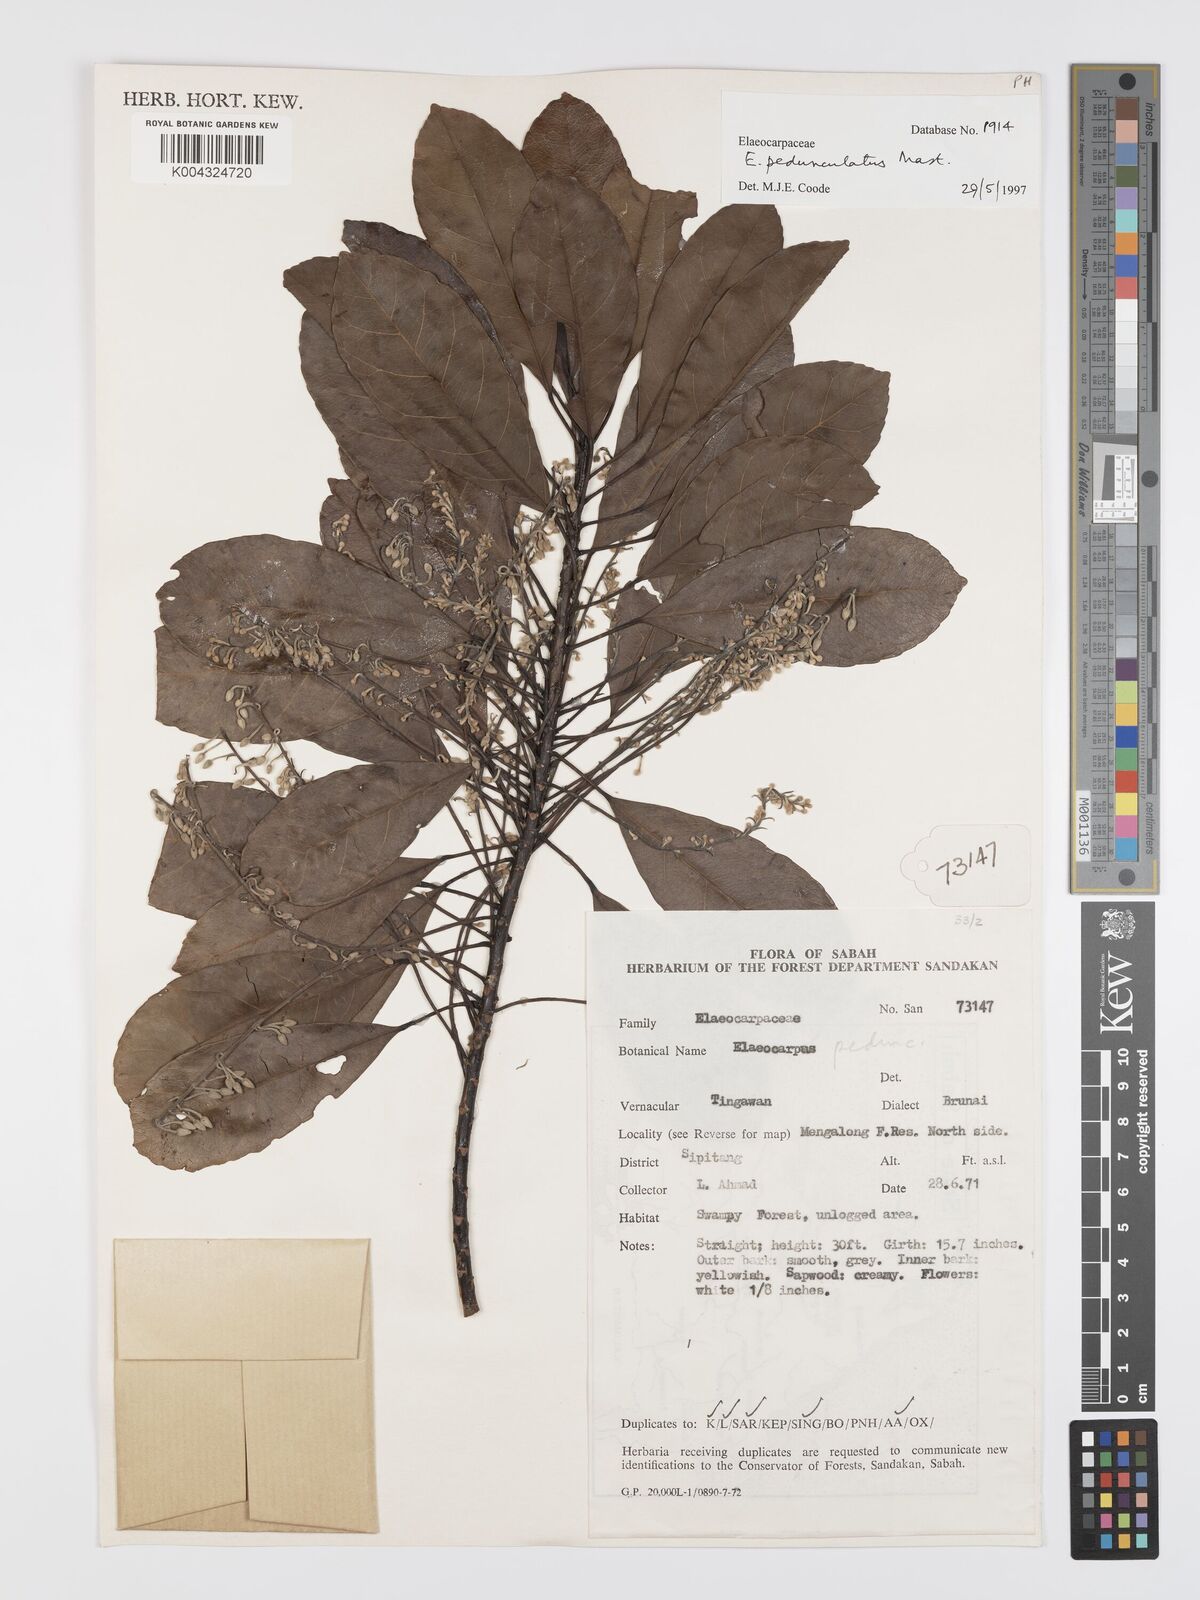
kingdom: Plantae
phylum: Tracheophyta
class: Magnoliopsida
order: Oxalidales
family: Elaeocarpaceae
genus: Elaeocarpus
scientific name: Elaeocarpus pedunculatus
